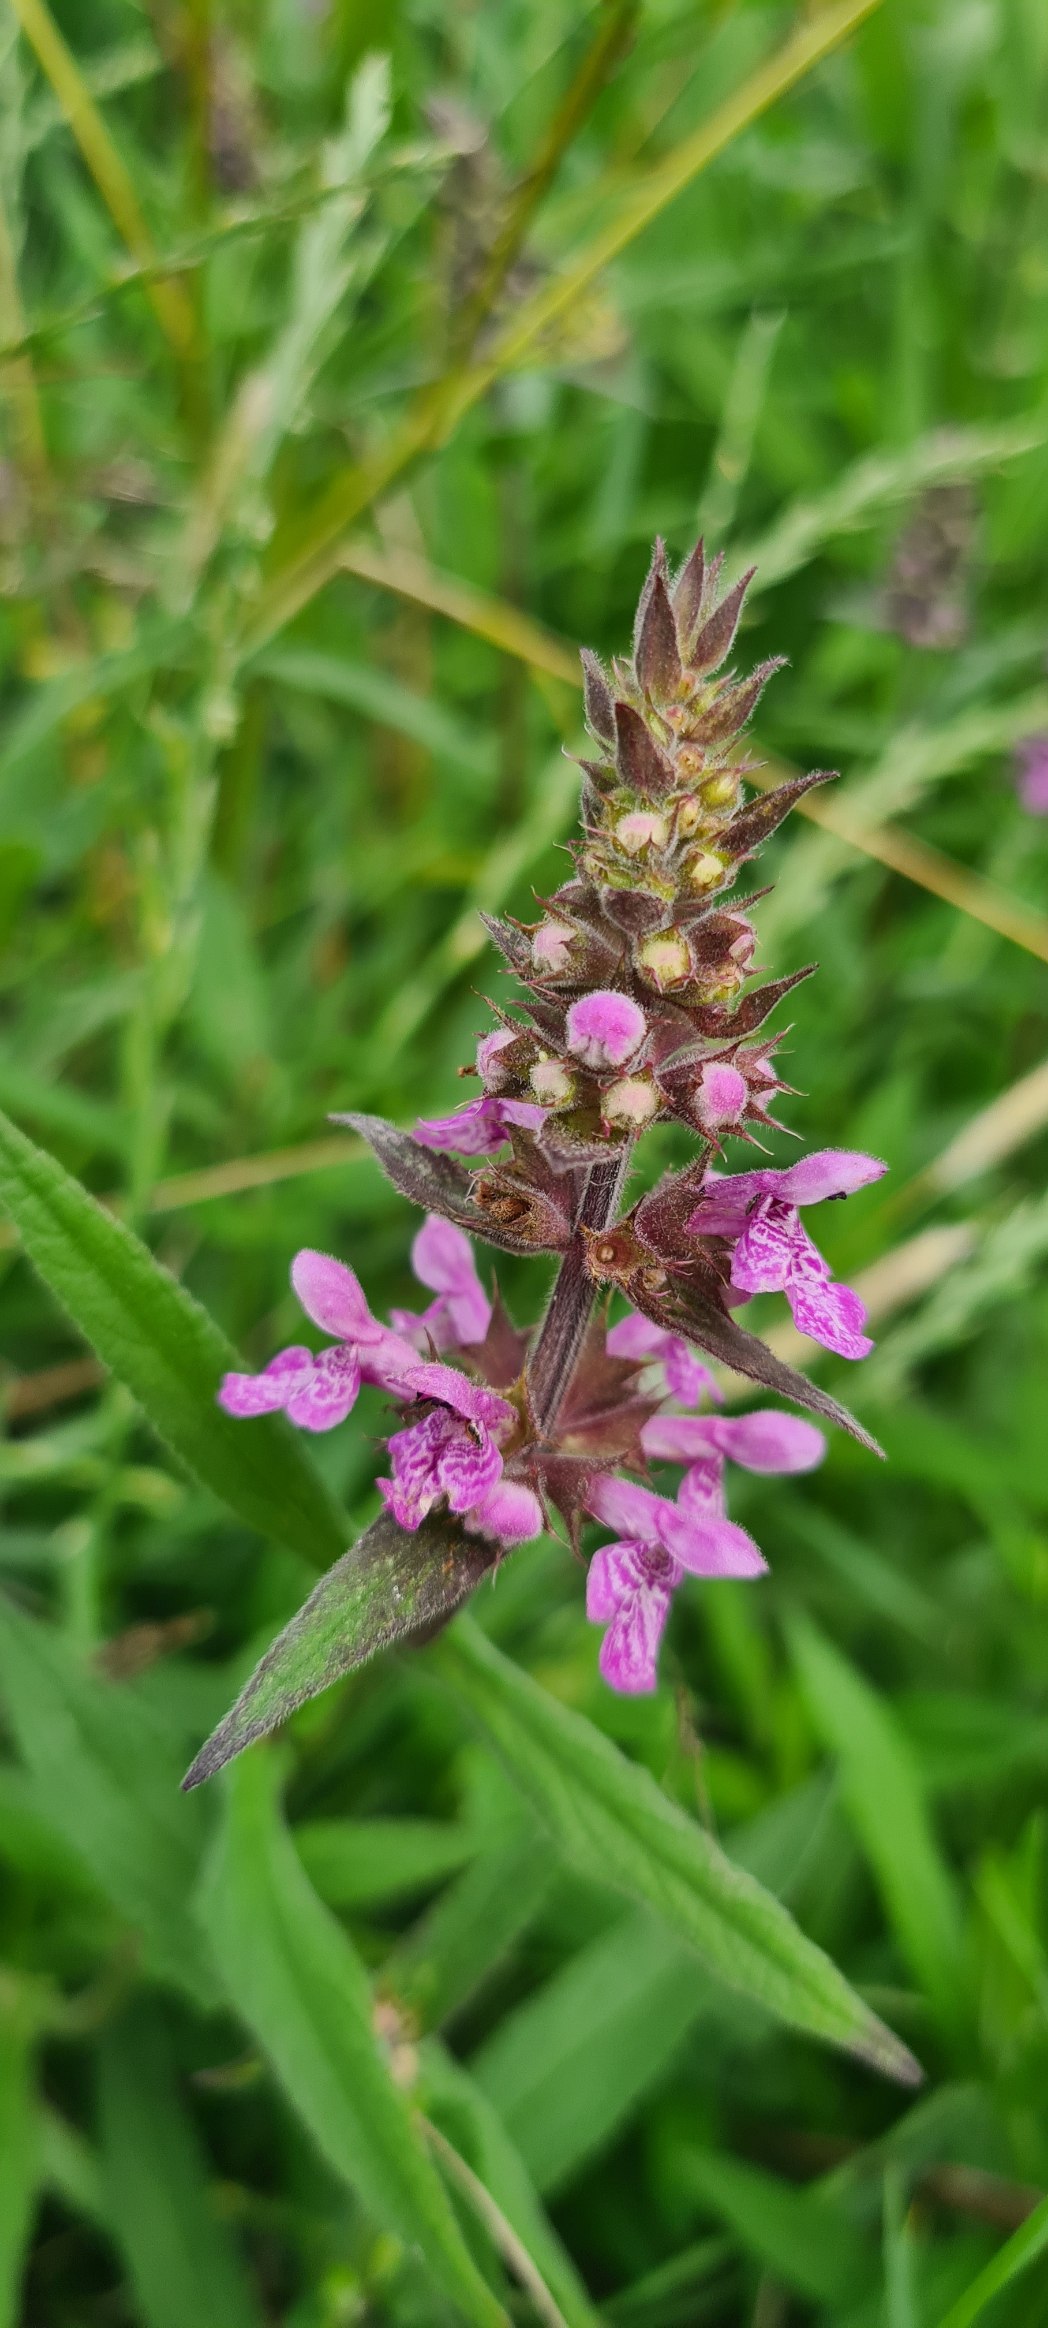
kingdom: Plantae
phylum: Tracheophyta
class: Magnoliopsida
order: Lamiales
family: Lamiaceae
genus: Stachys
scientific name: Stachys palustris
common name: Kær-galtetand
